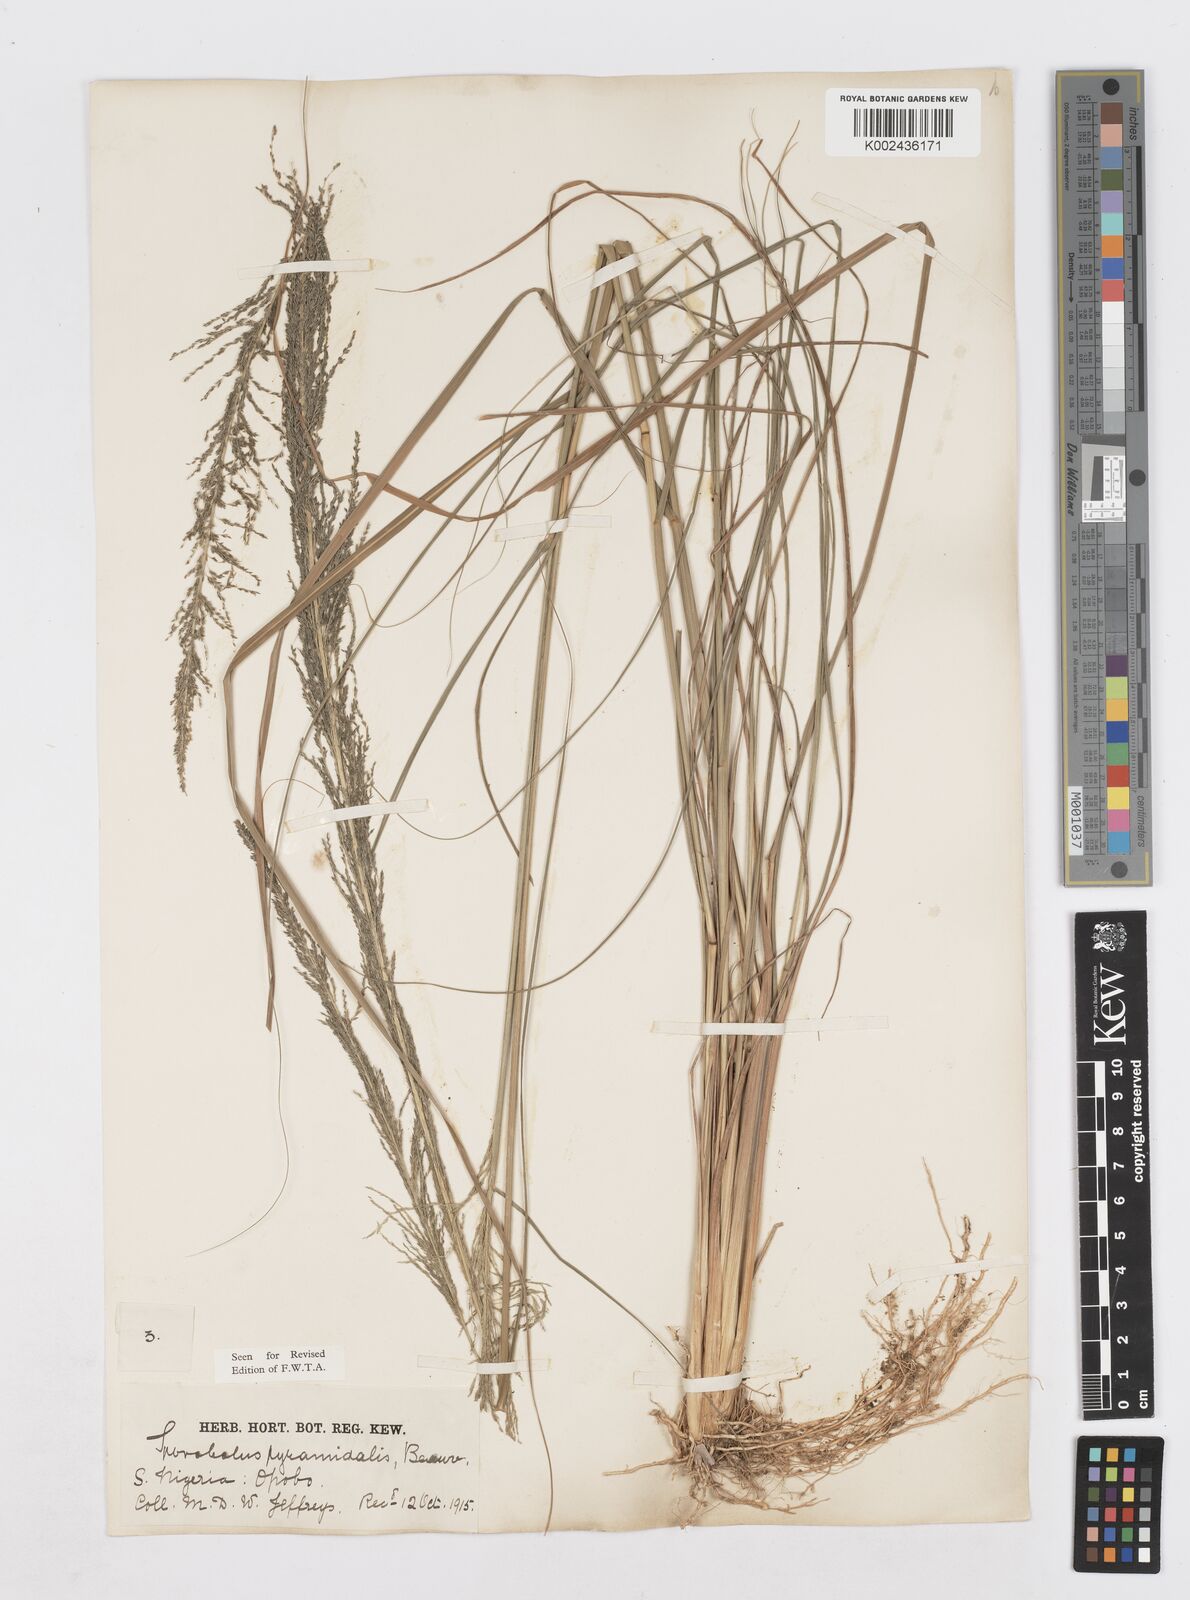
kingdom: Plantae
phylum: Tracheophyta
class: Liliopsida
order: Poales
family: Poaceae
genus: Sporobolus
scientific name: Sporobolus pyramidalis
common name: West indian dropseed
